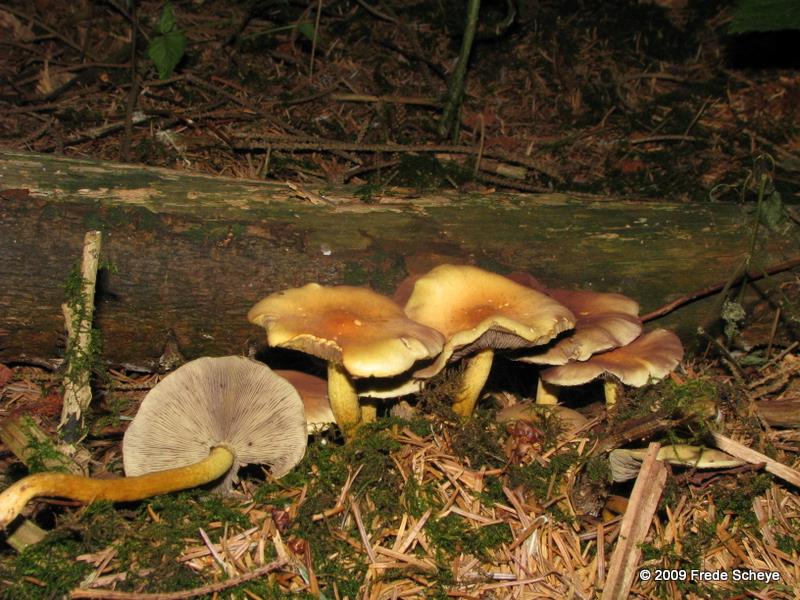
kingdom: Fungi
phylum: Basidiomycota
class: Agaricomycetes
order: Agaricales
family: Strophariaceae
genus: Hypholoma
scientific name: Hypholoma capnoides
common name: gran-svovlhat
